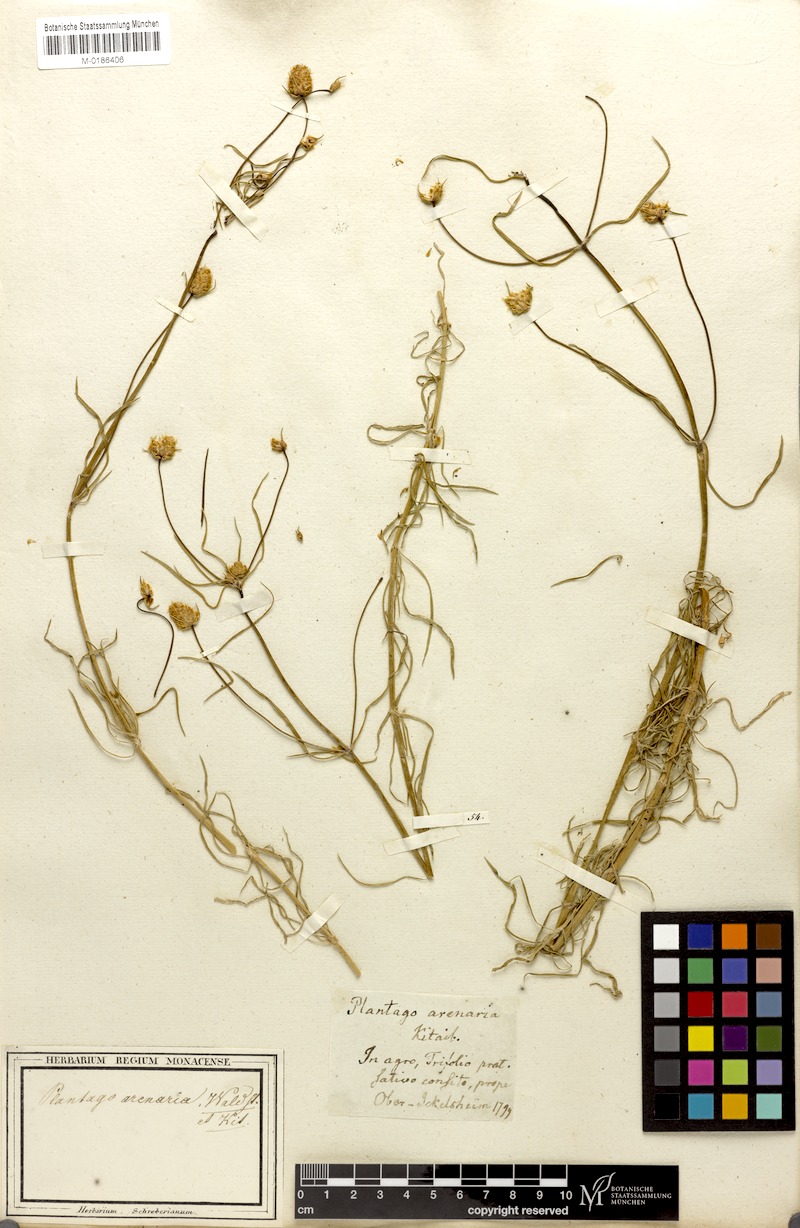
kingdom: Plantae
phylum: Tracheophyta
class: Magnoliopsida
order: Lamiales
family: Plantaginaceae
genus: Plantago
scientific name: Plantago arenaria
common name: Branched plantain
